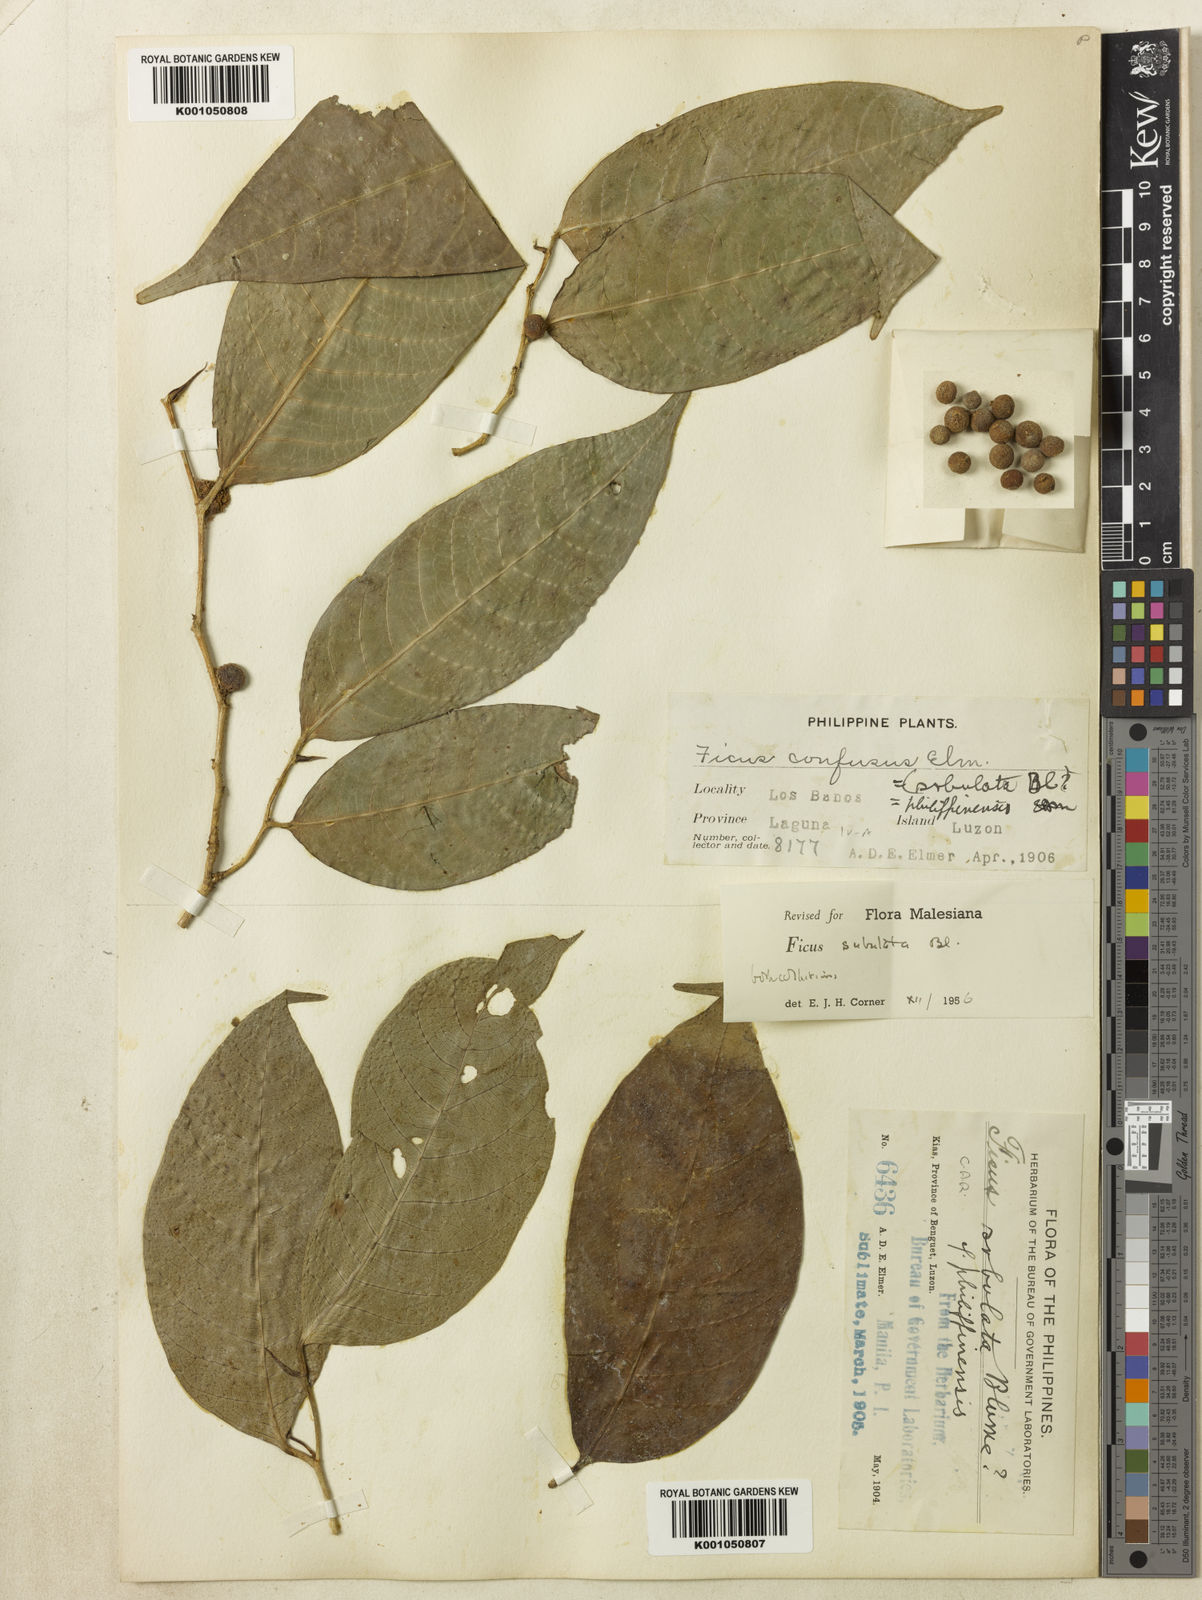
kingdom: Plantae
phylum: Tracheophyta
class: Magnoliopsida
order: Rosales
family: Moraceae
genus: Ficus
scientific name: Ficus subulata
